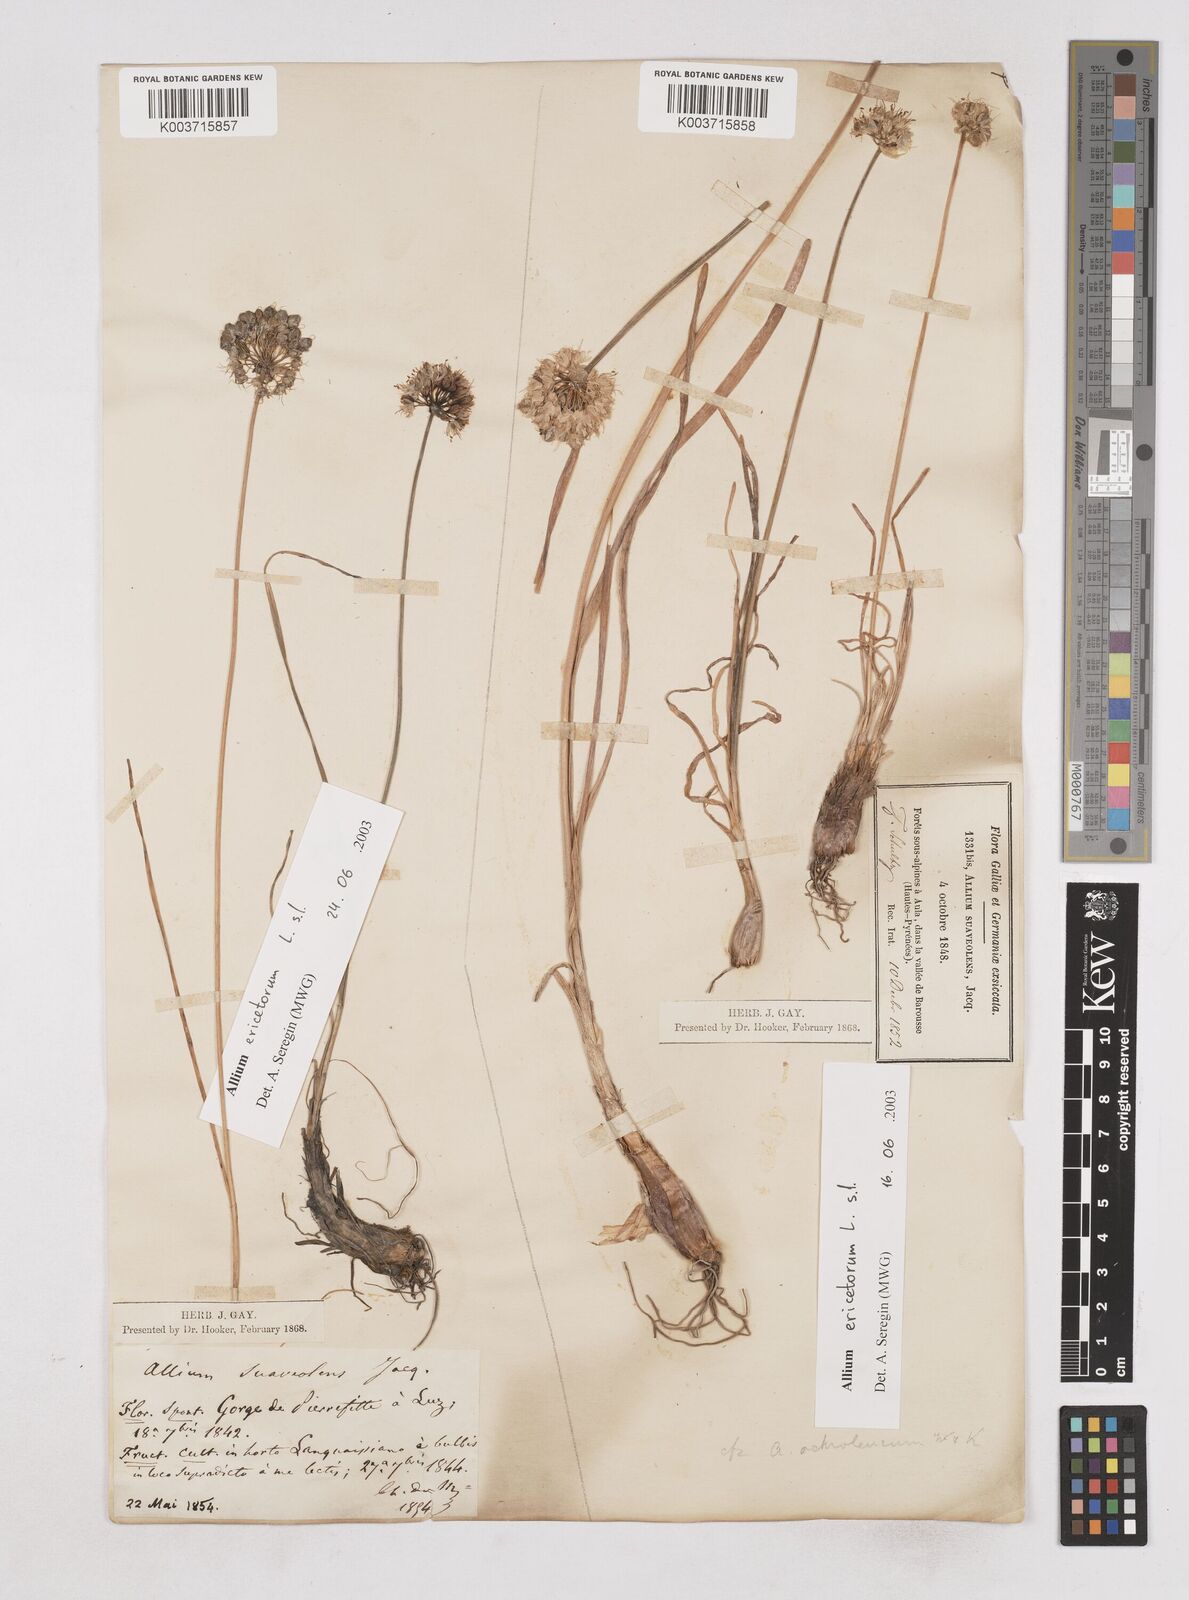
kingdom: Plantae
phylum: Tracheophyta
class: Liliopsida
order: Asparagales
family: Amaryllidaceae
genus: Allium
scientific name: Allium ericetorum
